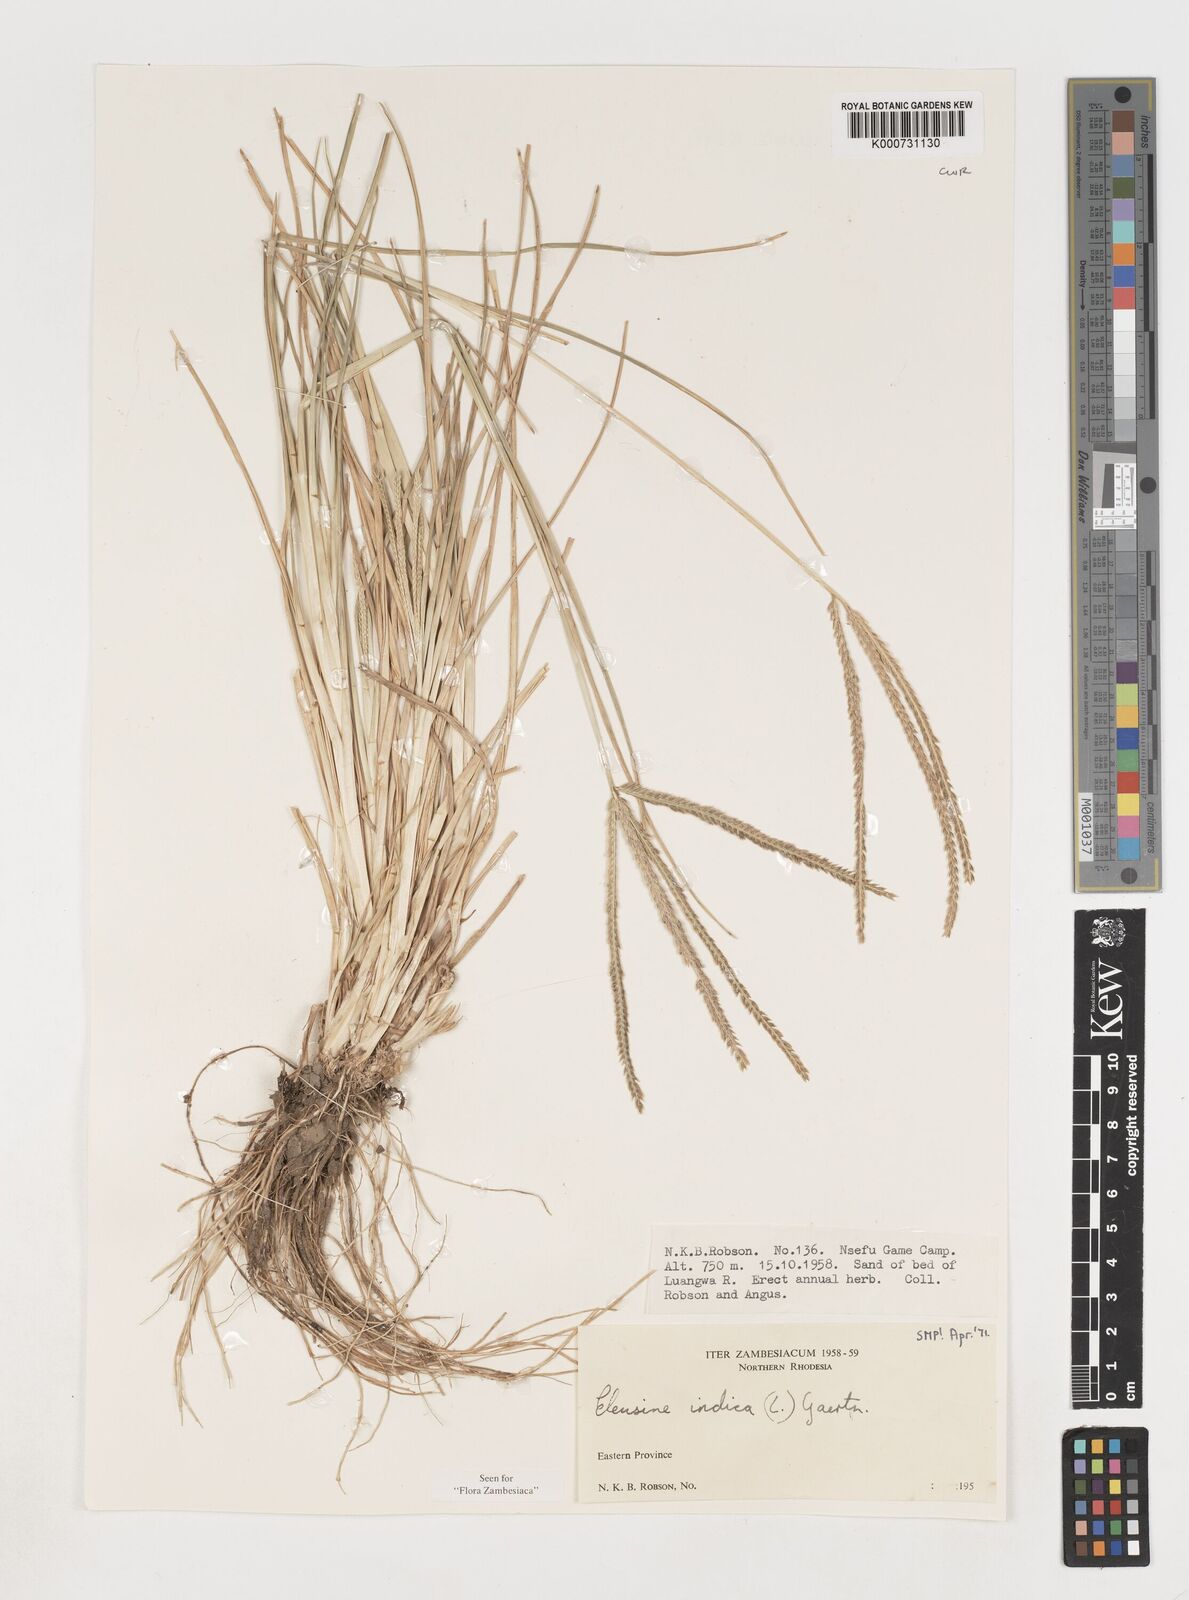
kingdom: Plantae
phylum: Tracheophyta
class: Liliopsida
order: Poales
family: Poaceae
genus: Eleusine
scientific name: Eleusine indica
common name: Yard-grass
